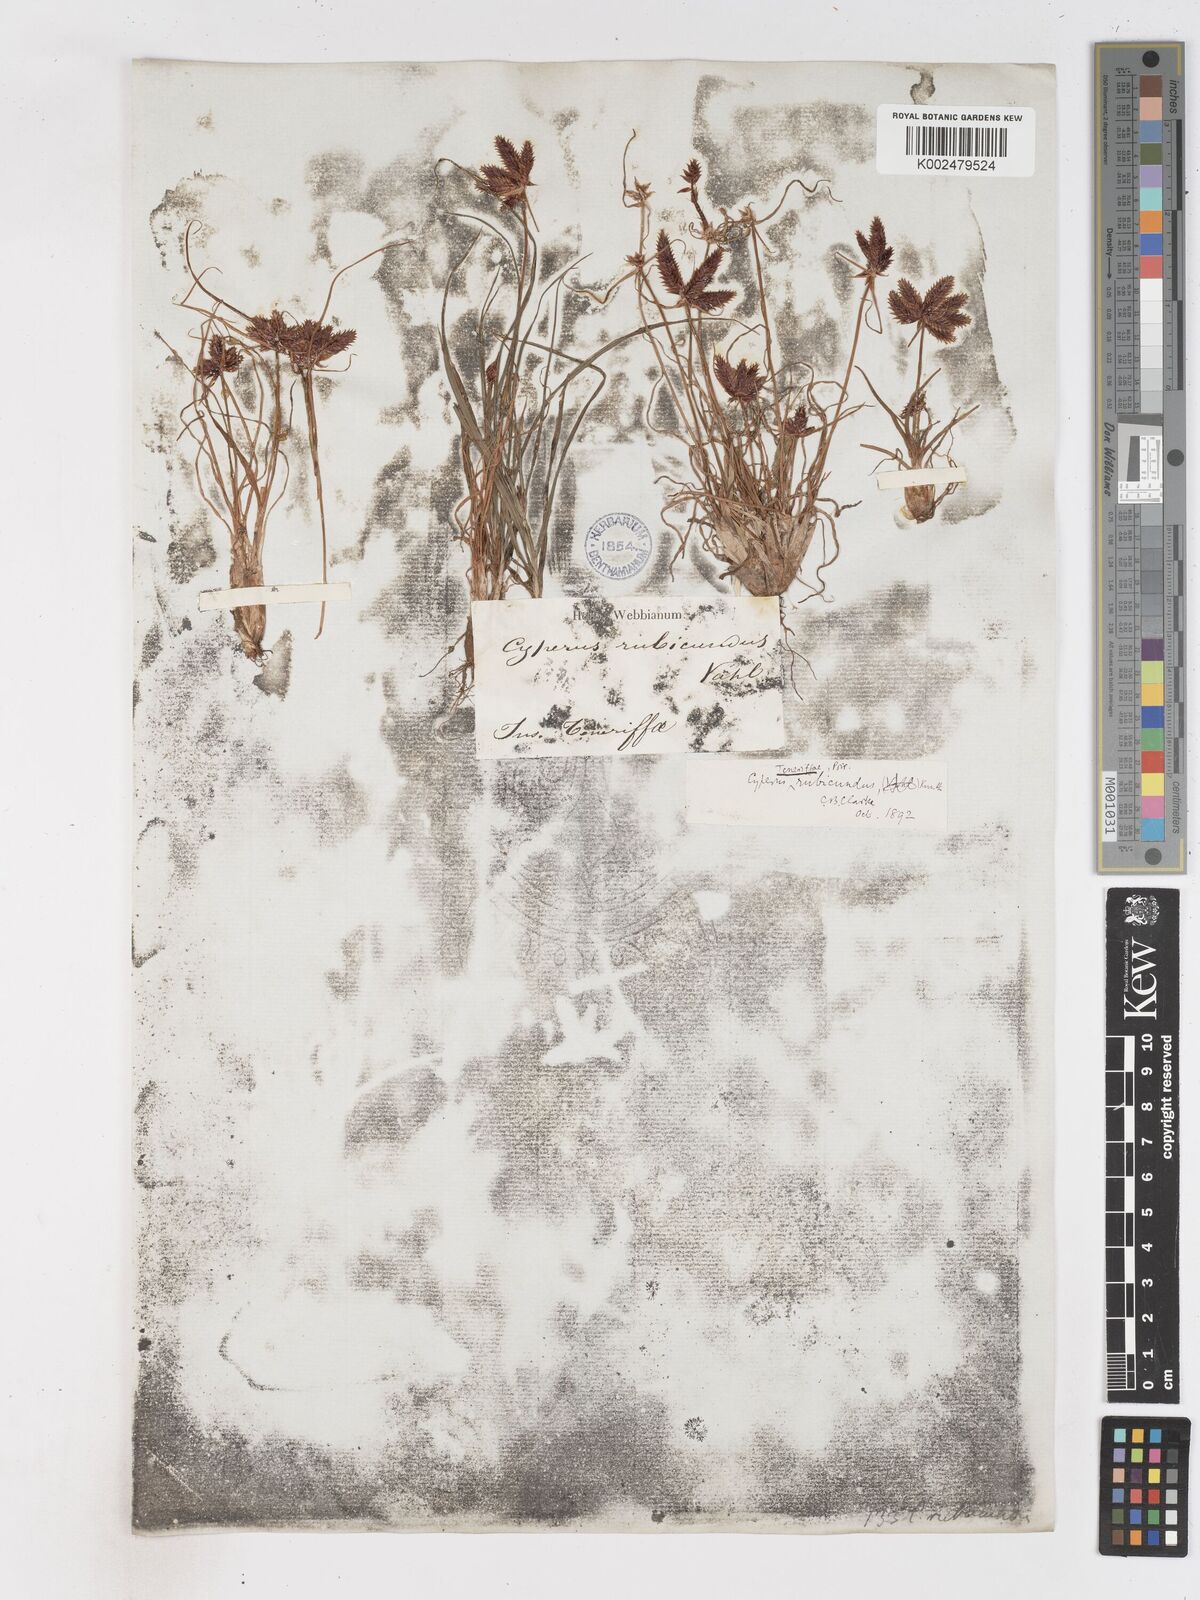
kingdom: Plantae
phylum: Tracheophyta
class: Liliopsida
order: Poales
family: Cyperaceae
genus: Cyperus
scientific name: Cyperus rubicundus
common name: Coco-grass
